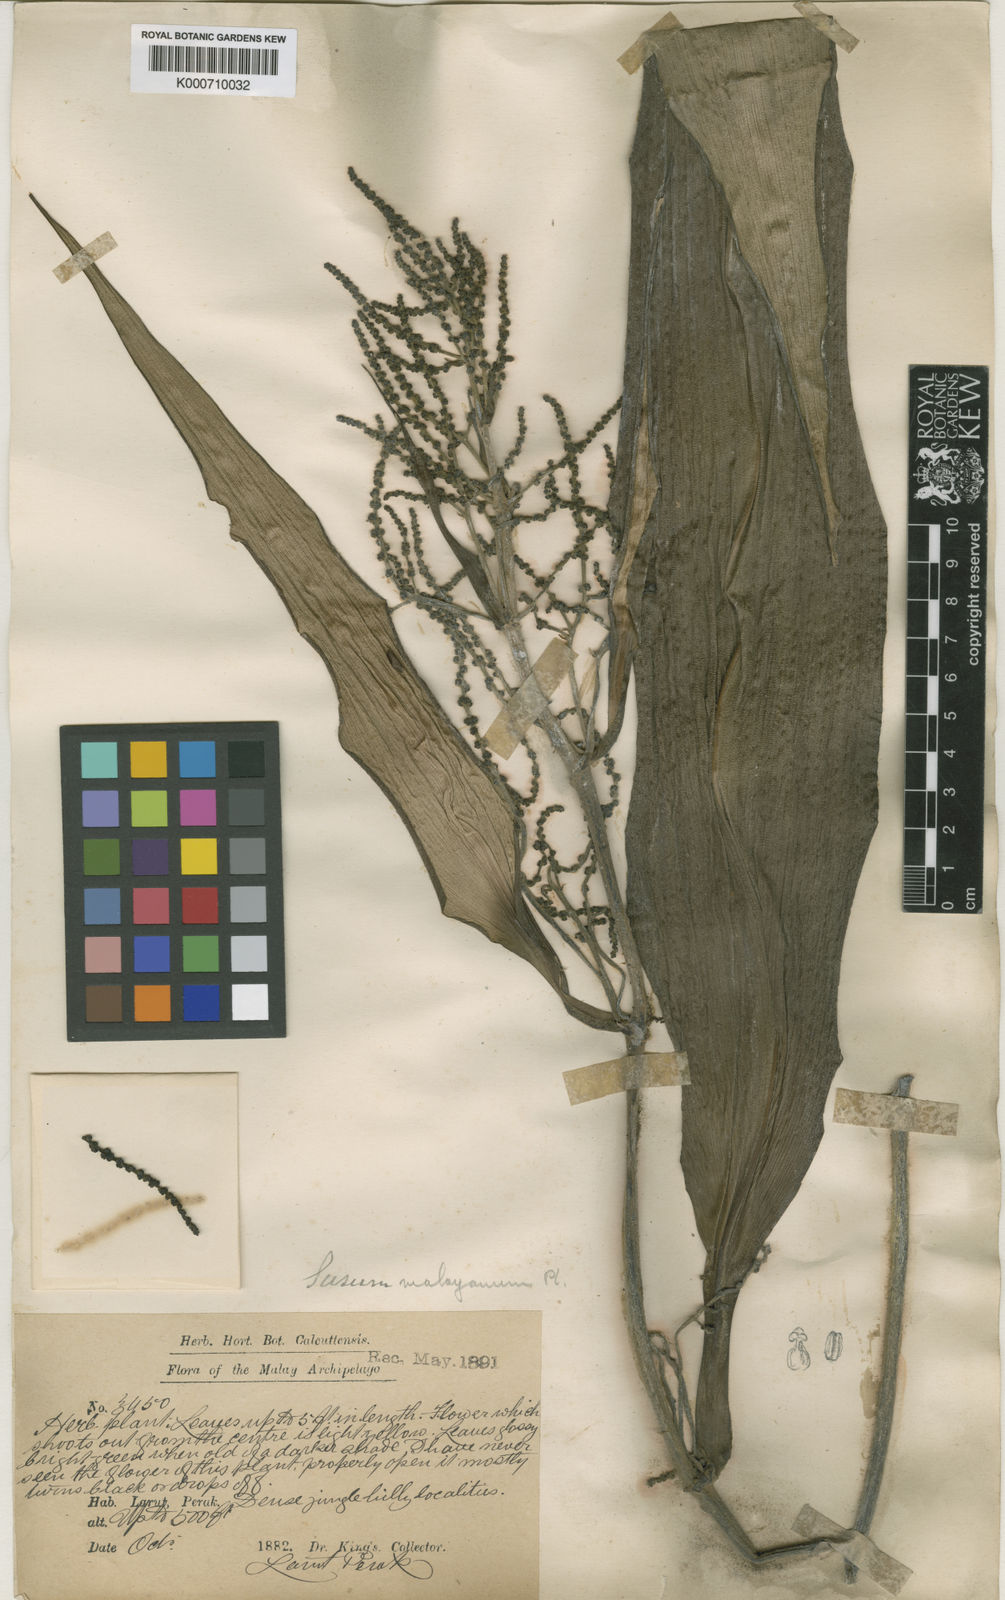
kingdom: Plantae
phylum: Tracheophyta
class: Liliopsida
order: Commelinales
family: Hanguanaceae
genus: Hanguana
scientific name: Hanguana malayana
